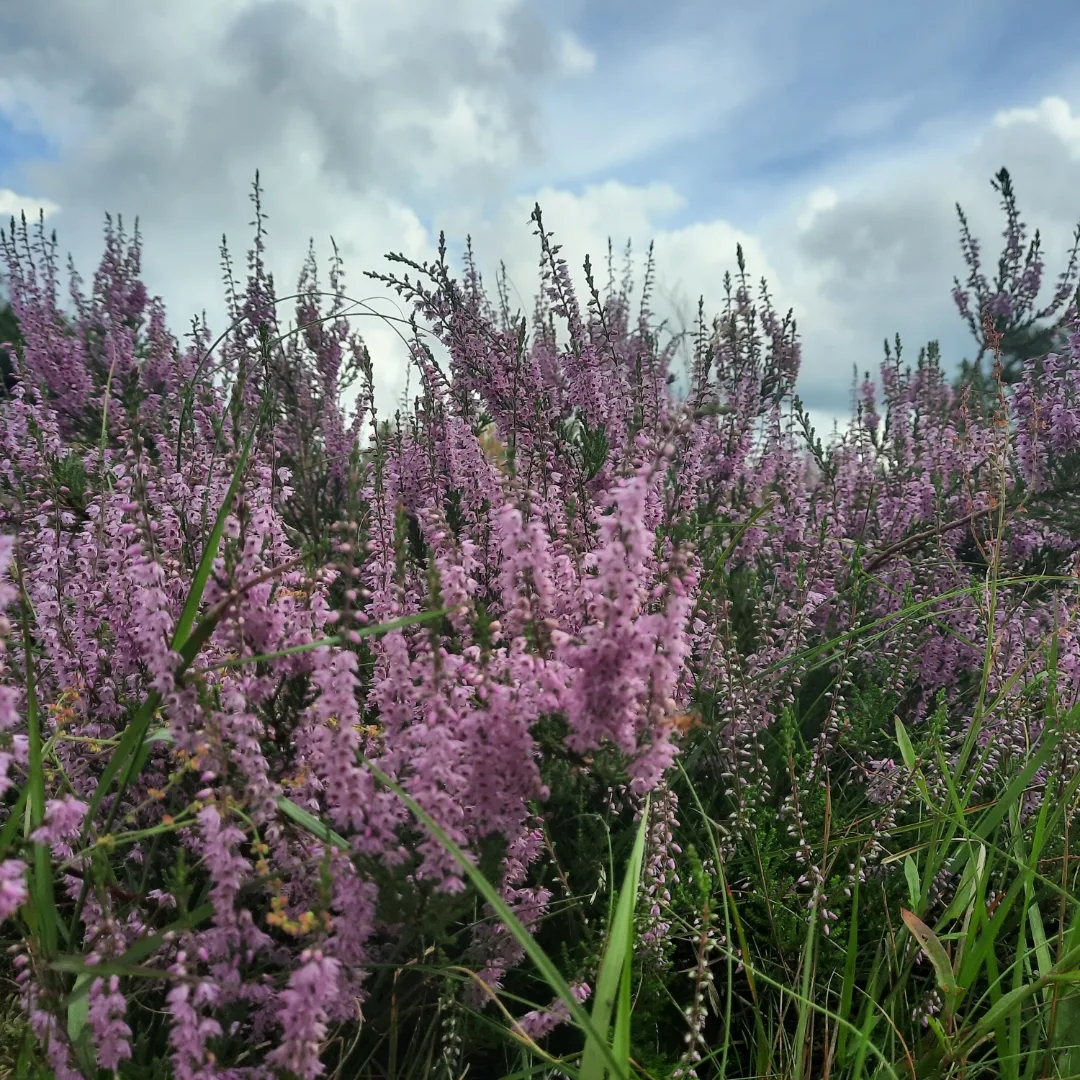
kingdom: Plantae
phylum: Tracheophyta
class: Magnoliopsida
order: Ericales
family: Ericaceae
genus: Calluna
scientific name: Calluna vulgaris
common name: Hedelyng
